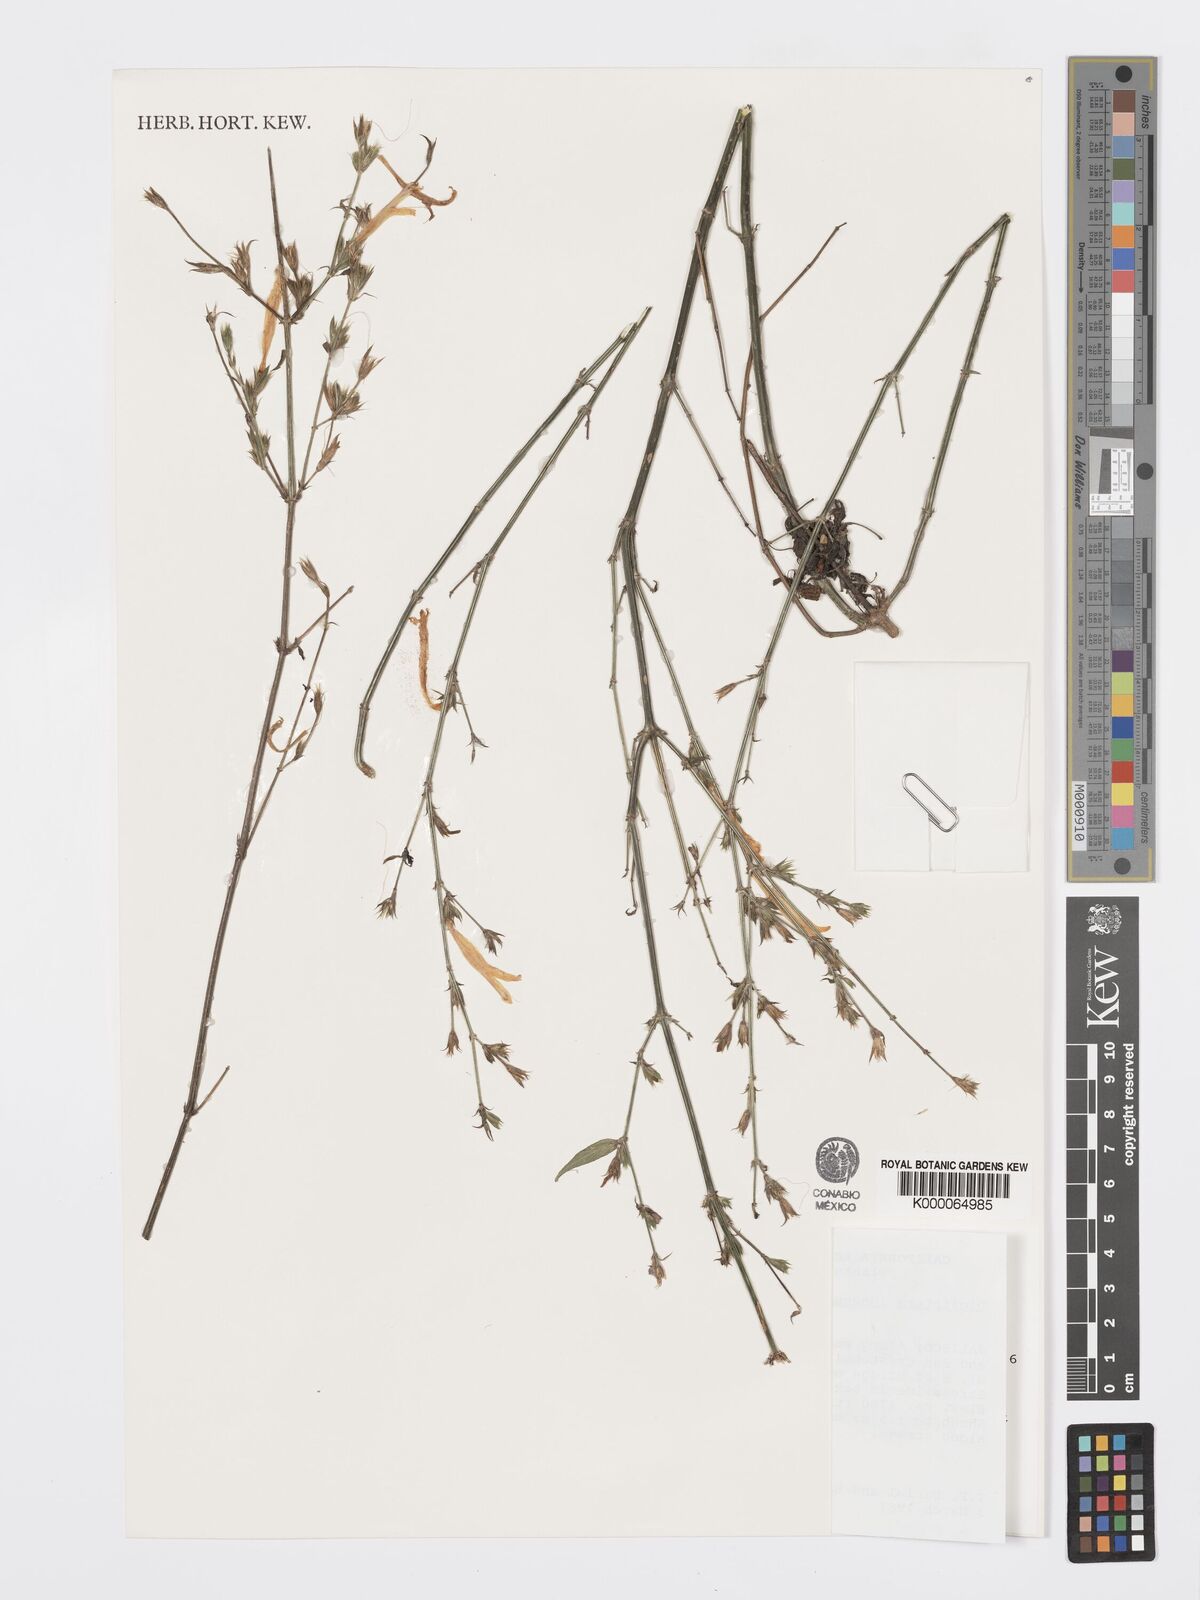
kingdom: Plantae
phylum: Tracheophyta
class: Magnoliopsida
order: Lamiales
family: Acanthaceae
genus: Dicliptera
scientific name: Dicliptera inaequalis
